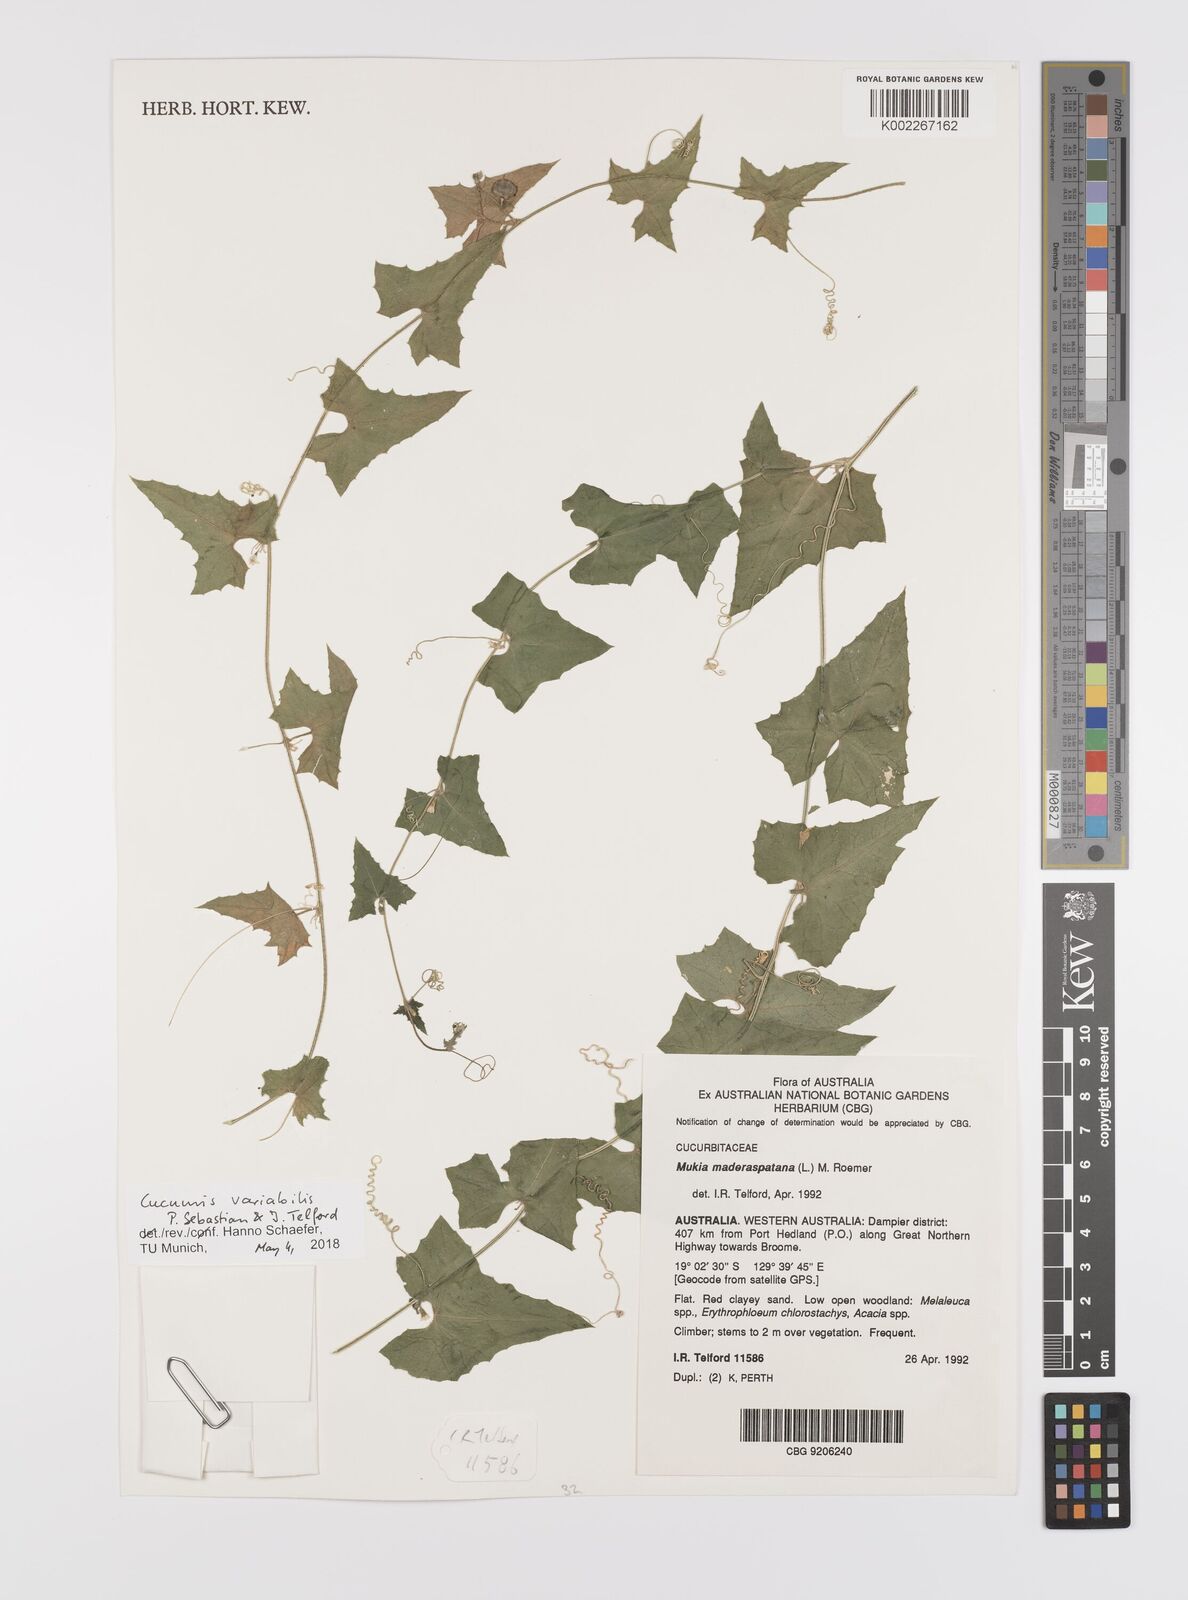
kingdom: Plantae
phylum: Tracheophyta
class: Magnoliopsida
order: Cucurbitales
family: Cucurbitaceae
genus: Cucumis
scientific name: Cucumis maderaspatanus
